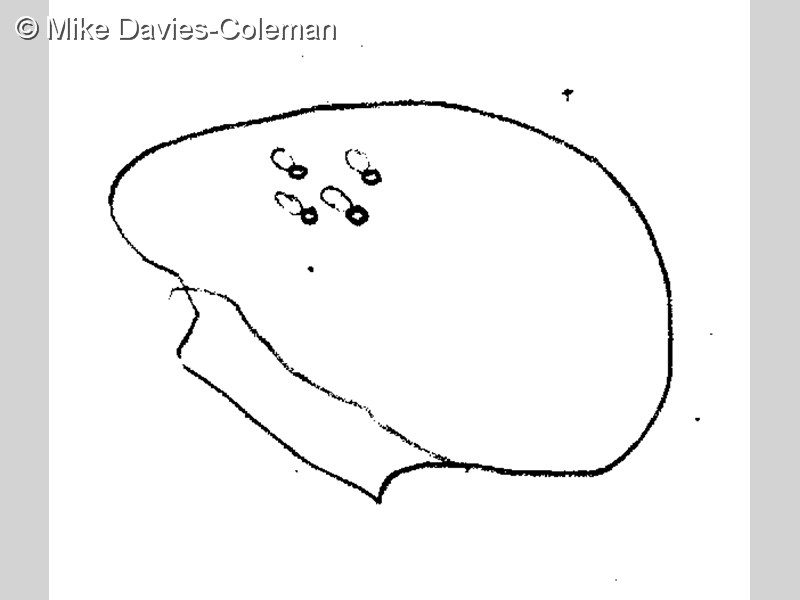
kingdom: Animalia
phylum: Chordata
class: Ascidiacea
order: Aplousobranchia
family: Stomozoidae
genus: Stomozoa
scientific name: Stomozoa roseola
